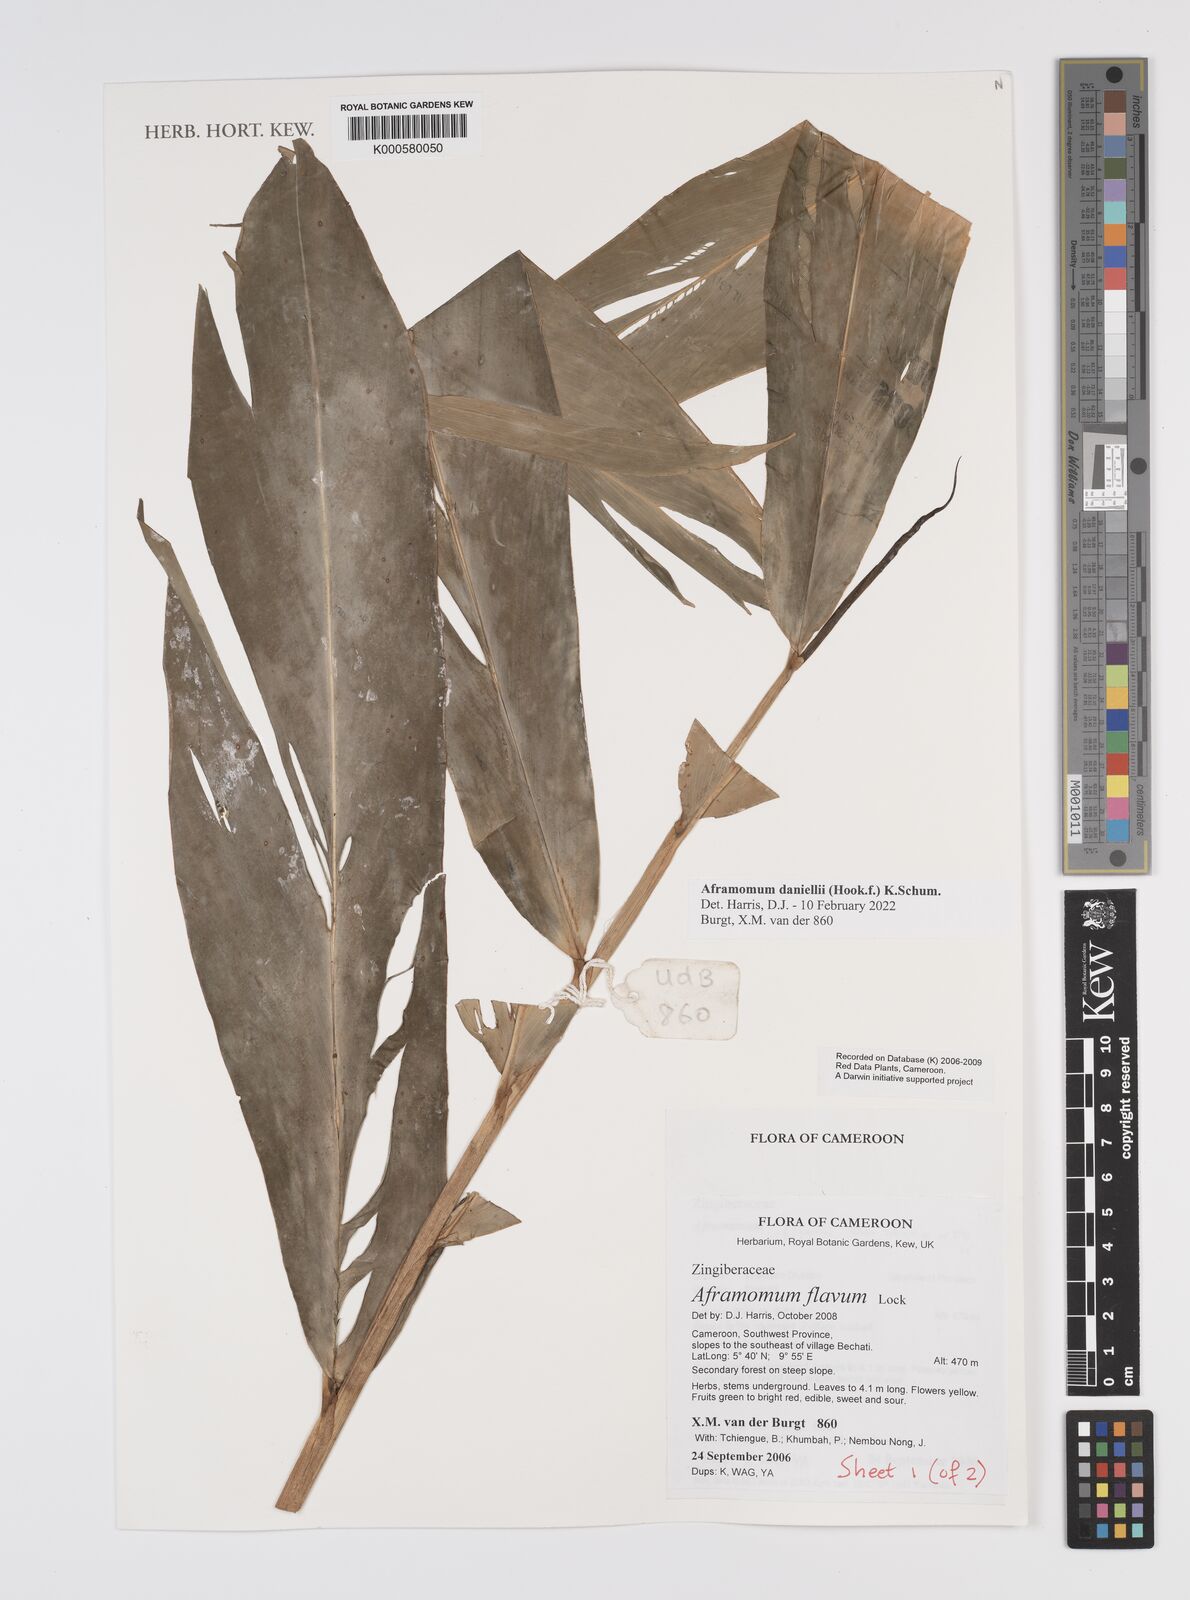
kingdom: Plantae
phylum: Tracheophyta
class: Liliopsida
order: Zingiberales
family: Zingiberaceae
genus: Aframomum
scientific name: Aframomum daniellii
